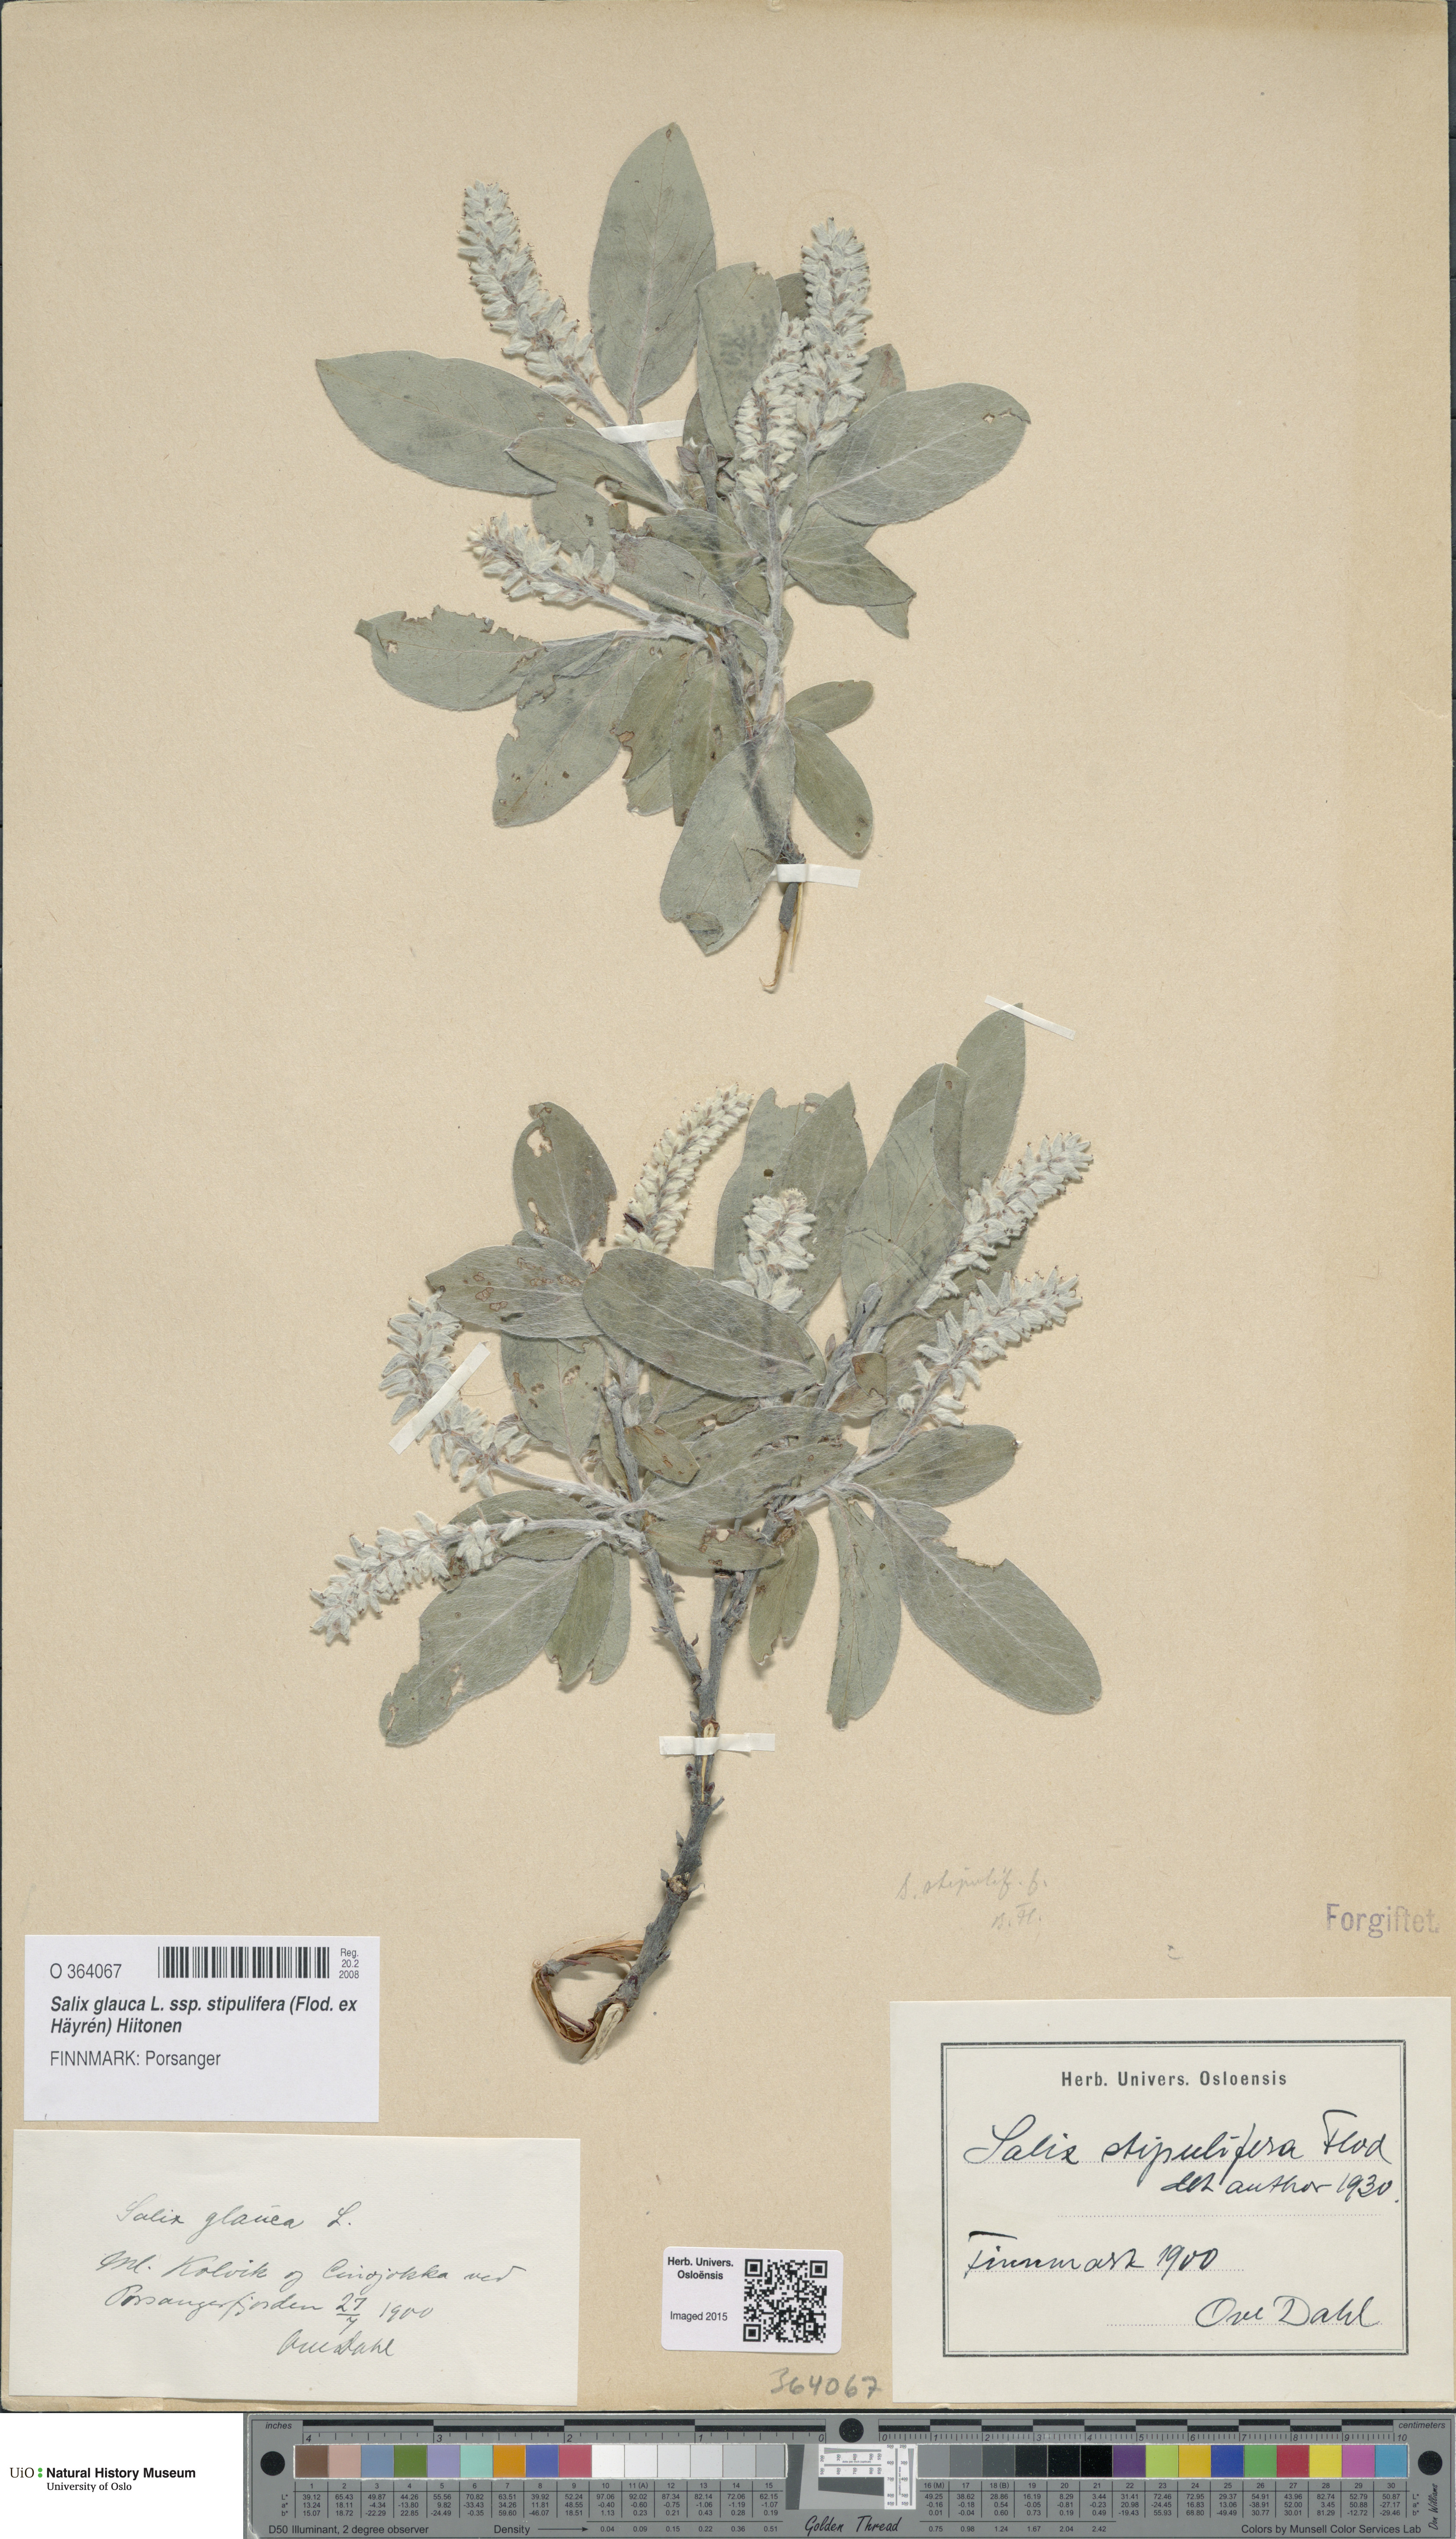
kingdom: Plantae
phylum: Tracheophyta
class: Magnoliopsida
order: Malpighiales
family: Salicaceae
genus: Salix
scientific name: Salix glauca
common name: Glaucous willow
